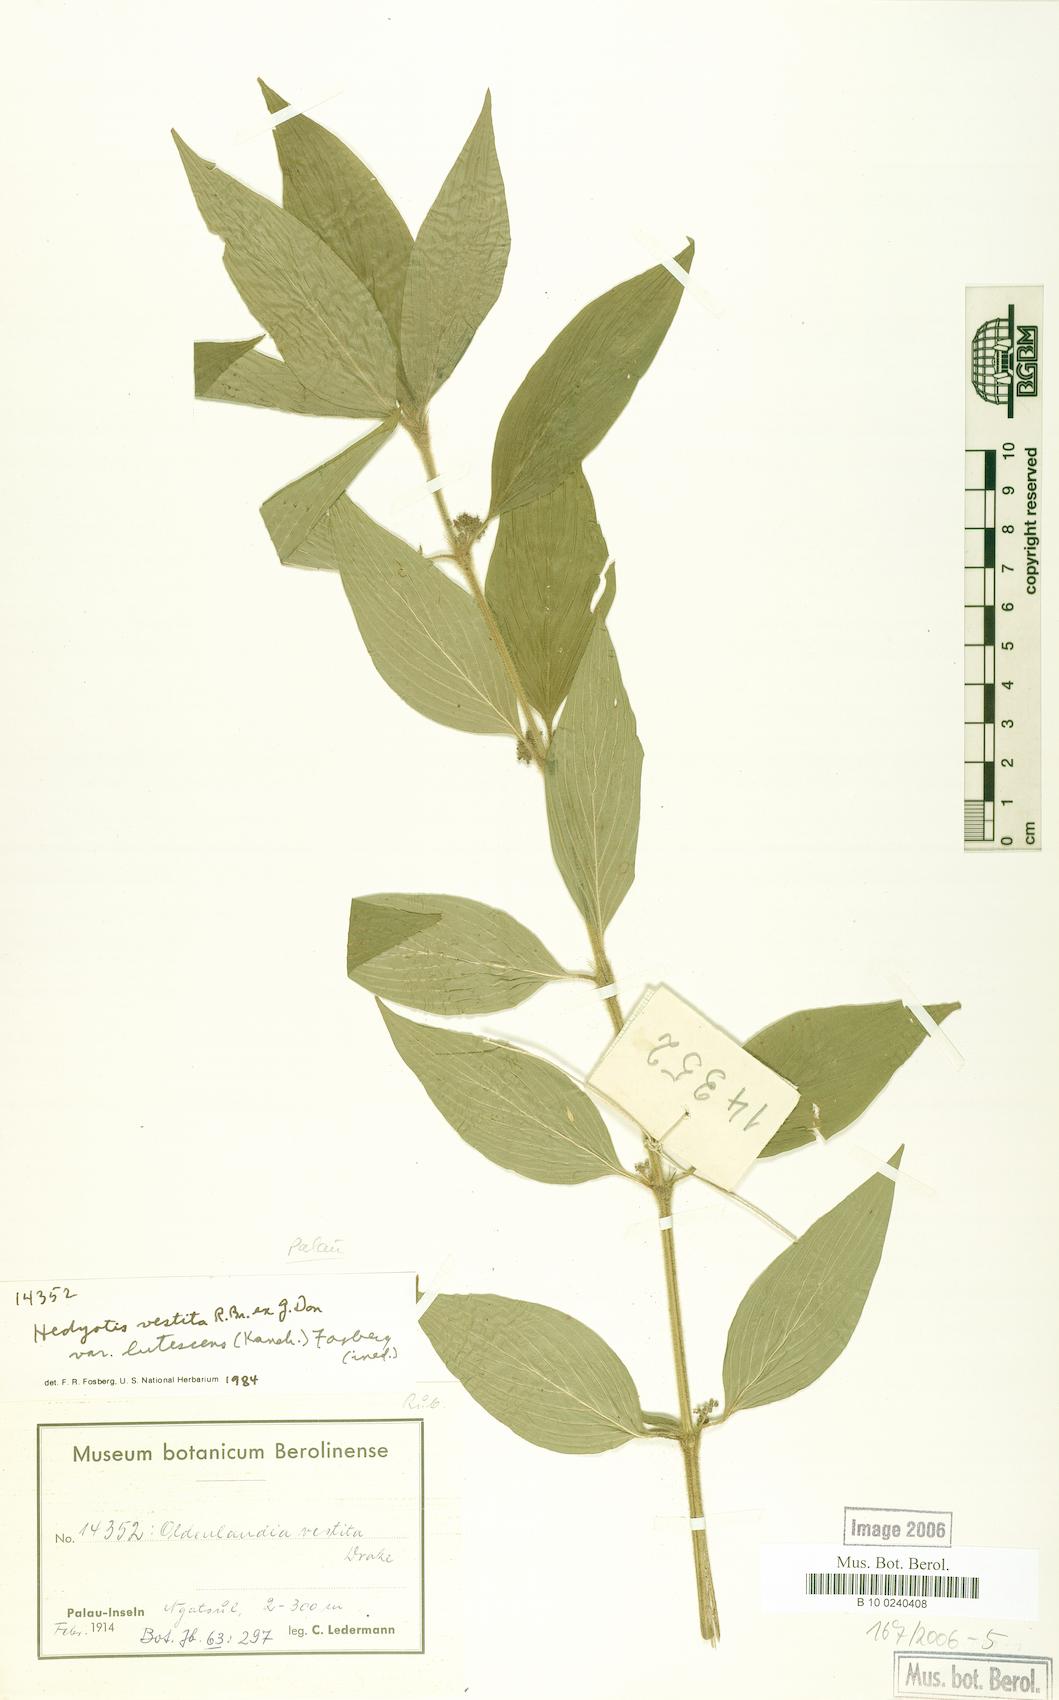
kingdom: Plantae
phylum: Tracheophyta
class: Magnoliopsida
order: Gentianales
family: Rubiaceae
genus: Hedyotis
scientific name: Hedyotis rigida
